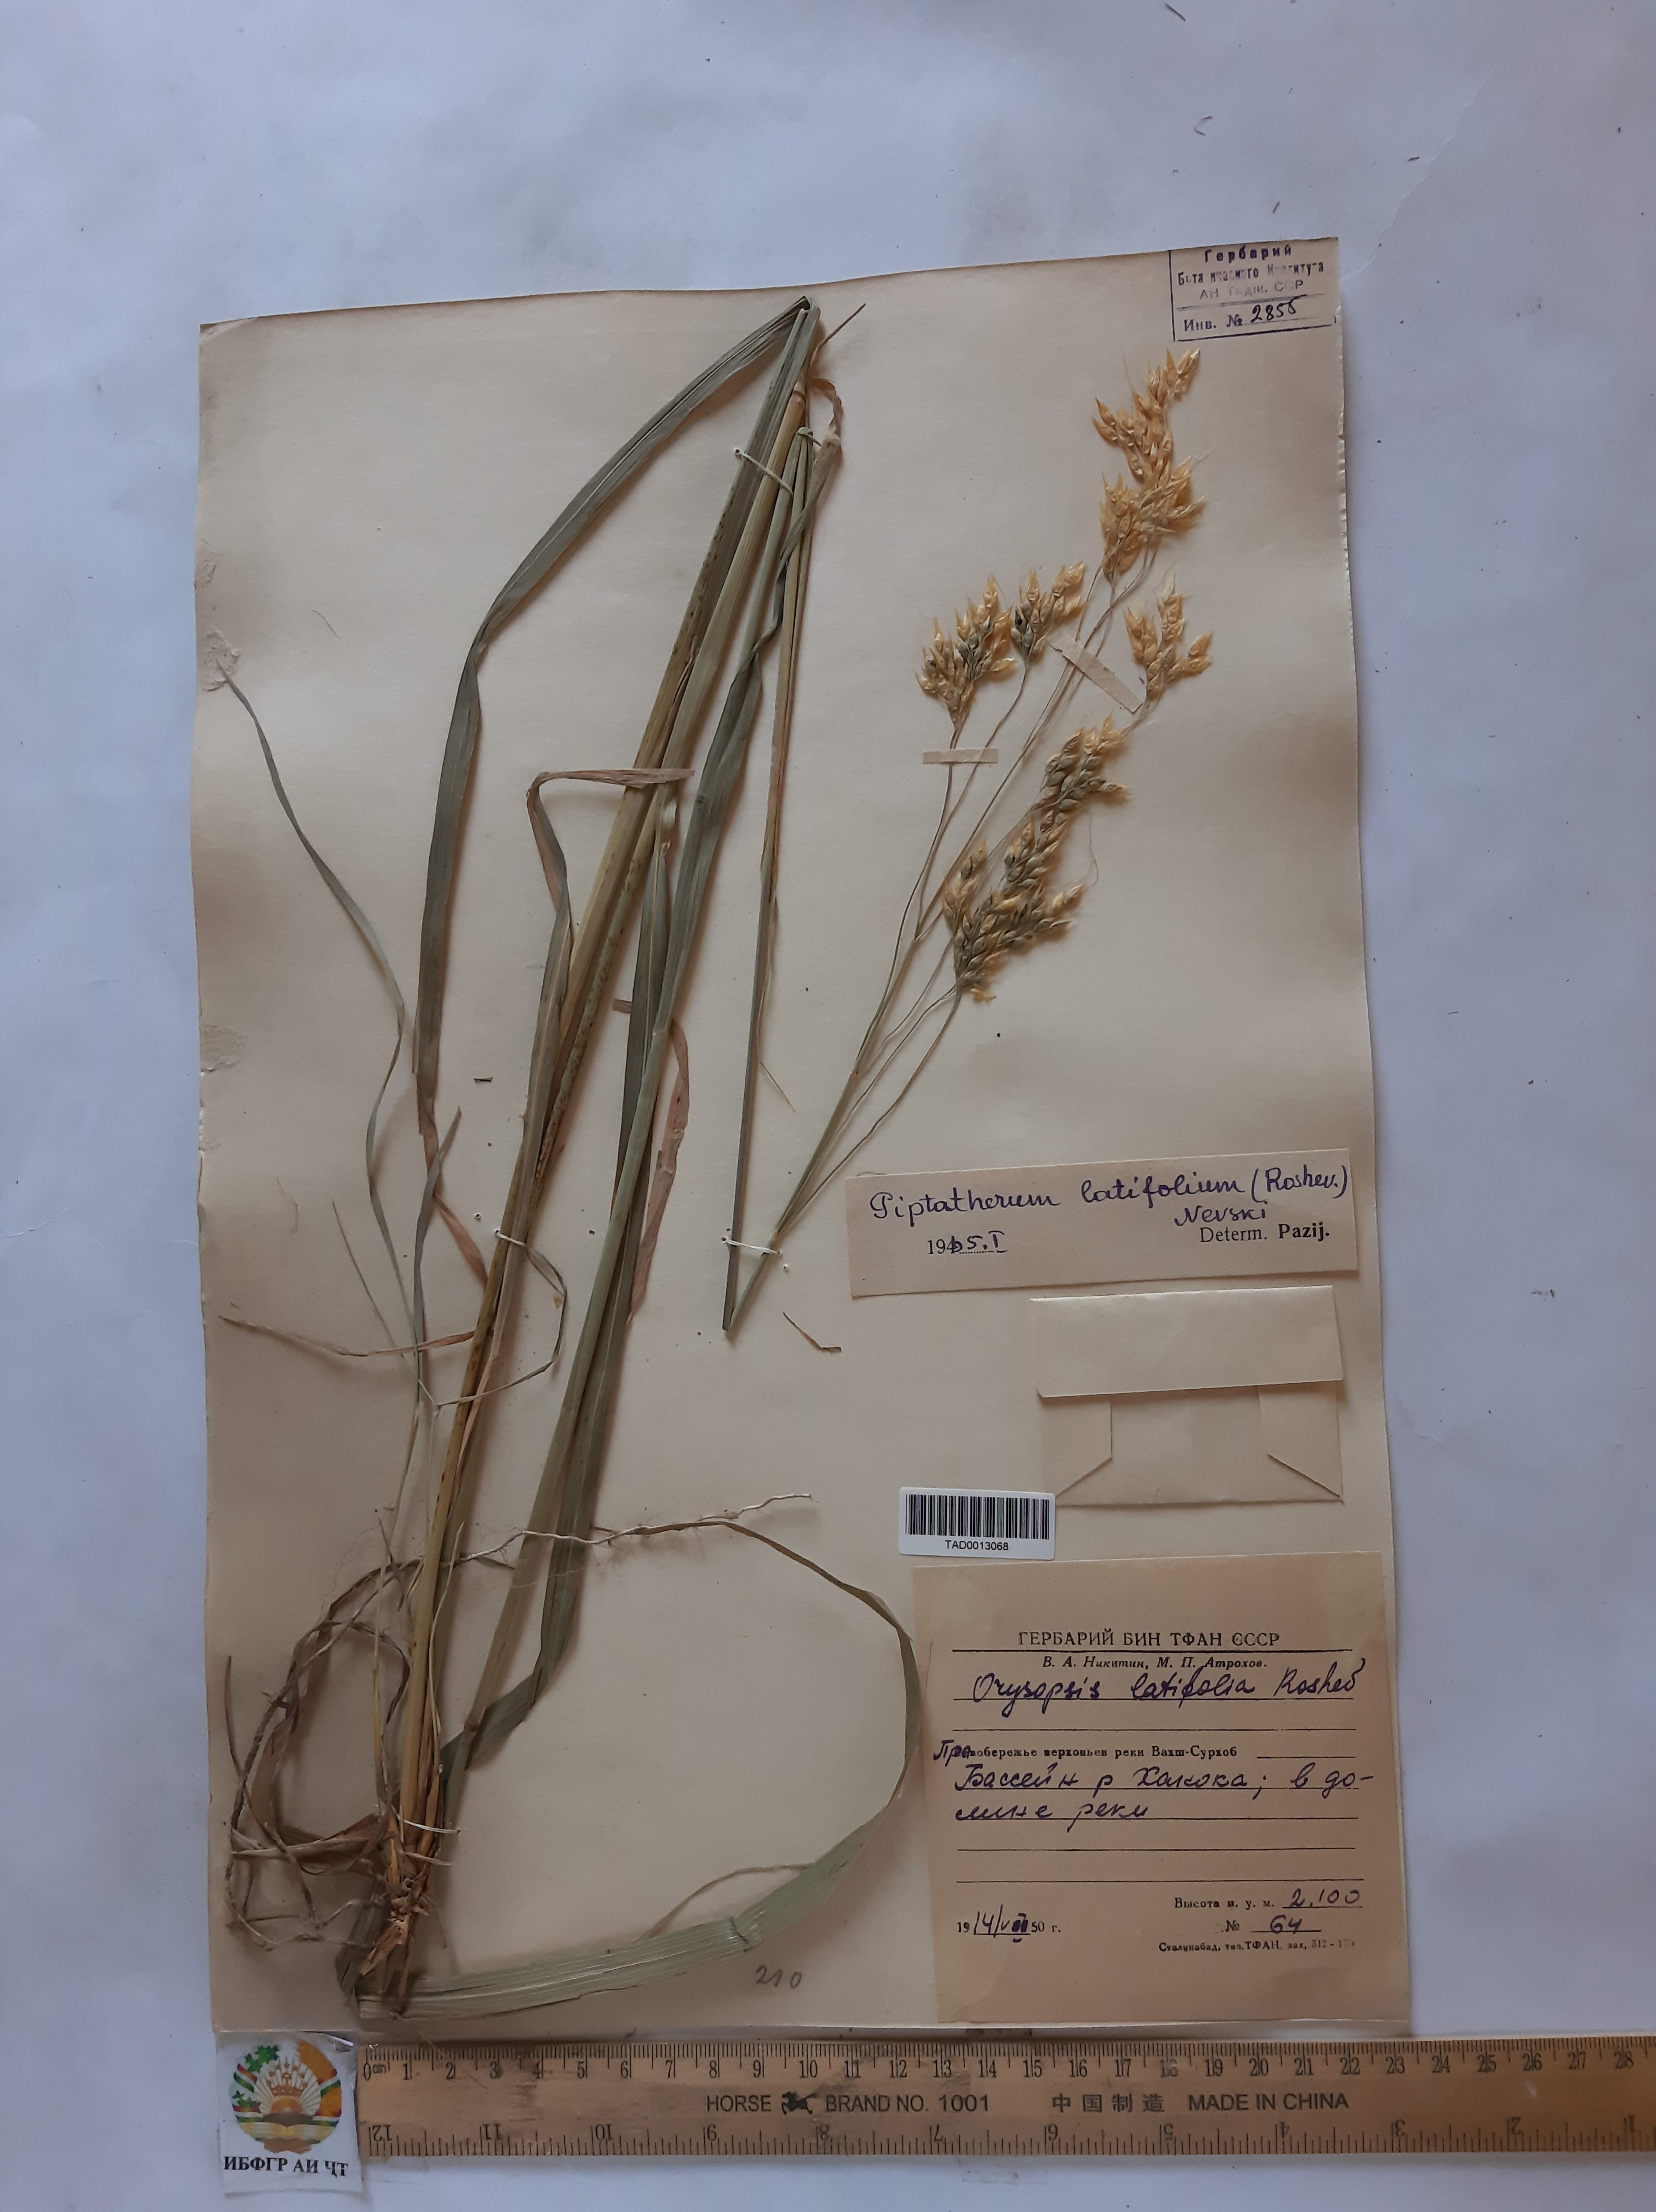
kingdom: Plantae
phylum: Tracheophyta
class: Liliopsida
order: Poales
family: Poaceae
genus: Piptatherum
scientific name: Piptatherum laterale
